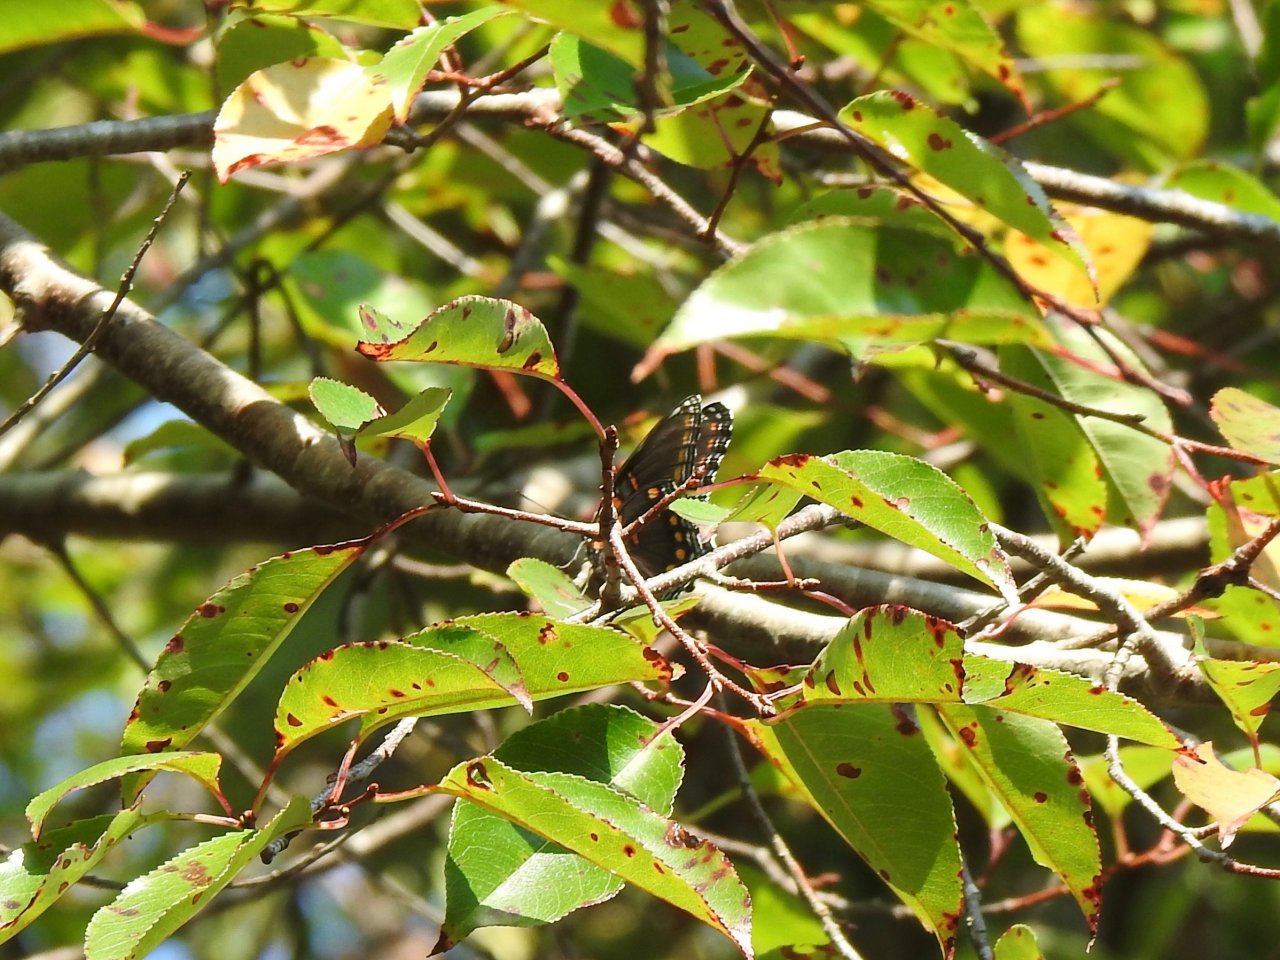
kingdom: Animalia
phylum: Arthropoda
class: Insecta
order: Lepidoptera
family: Nymphalidae
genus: Limenitis
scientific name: Limenitis arthemis
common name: Red-spotted Admiral
